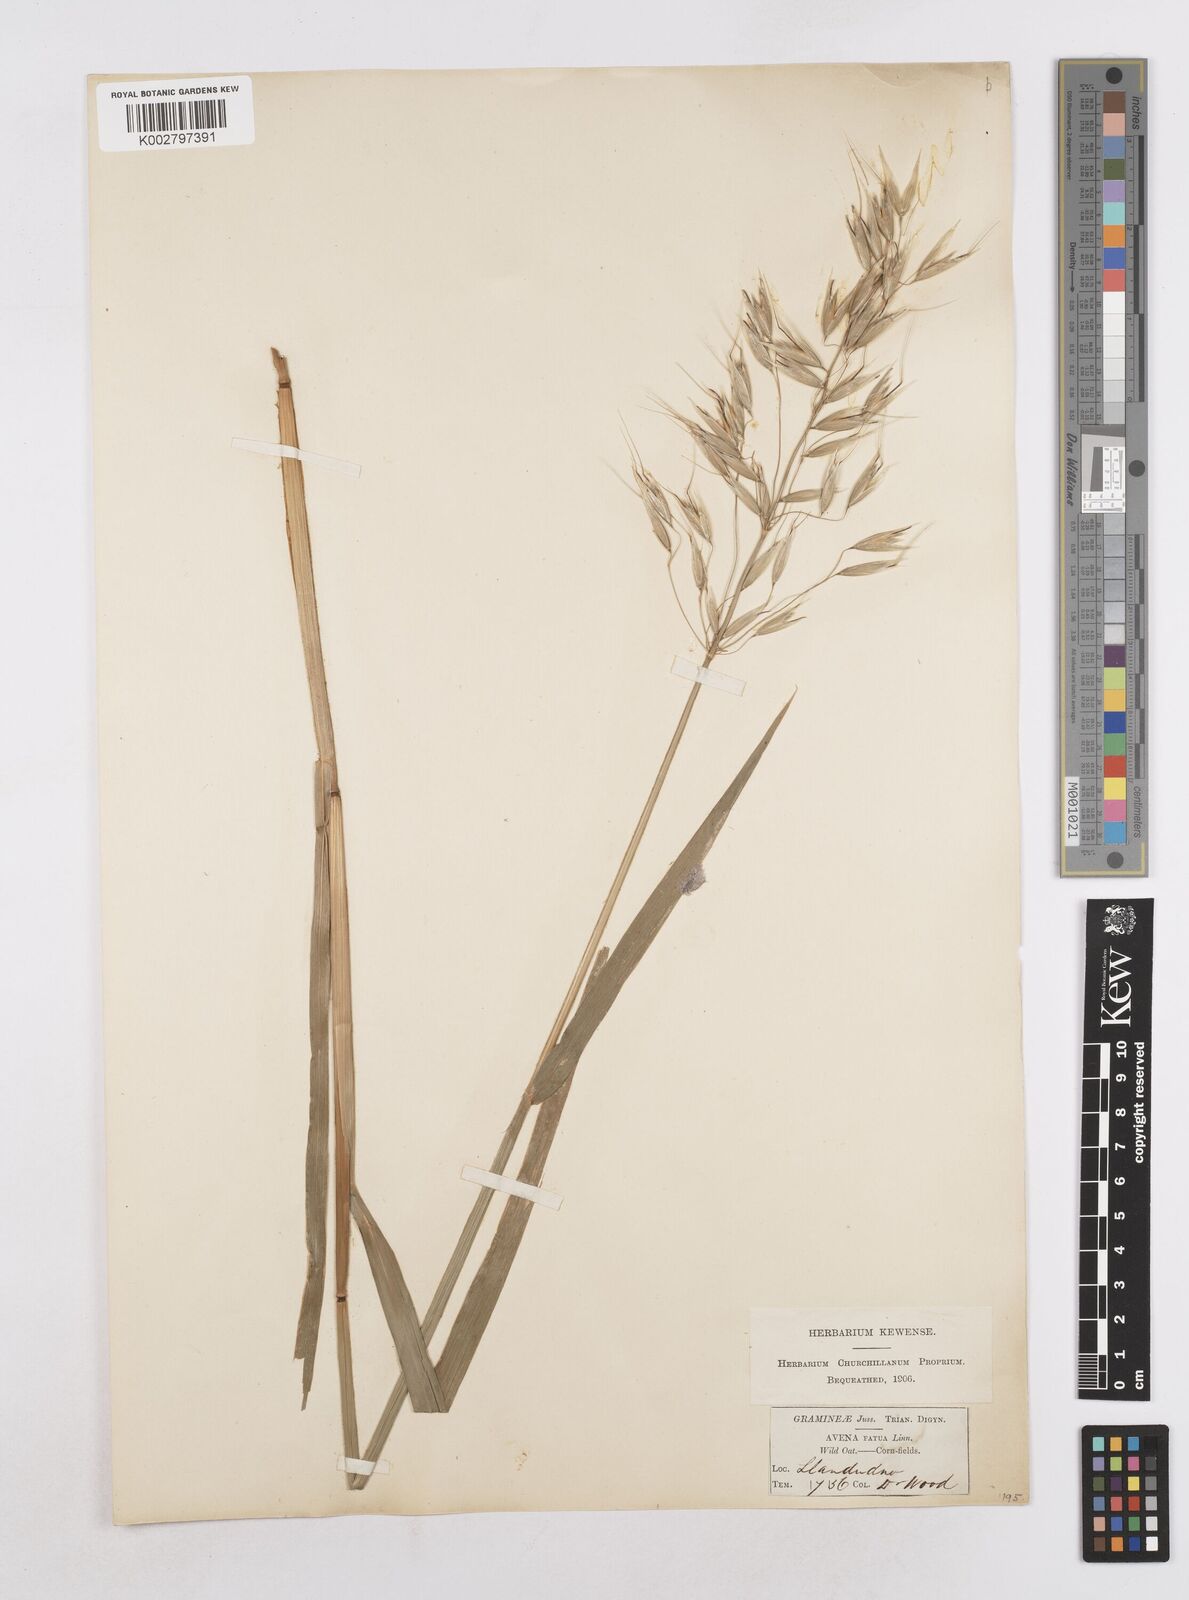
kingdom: Plantae
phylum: Tracheophyta
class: Liliopsida
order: Poales
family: Poaceae
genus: Avena
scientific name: Avena fatua
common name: Wild oat
